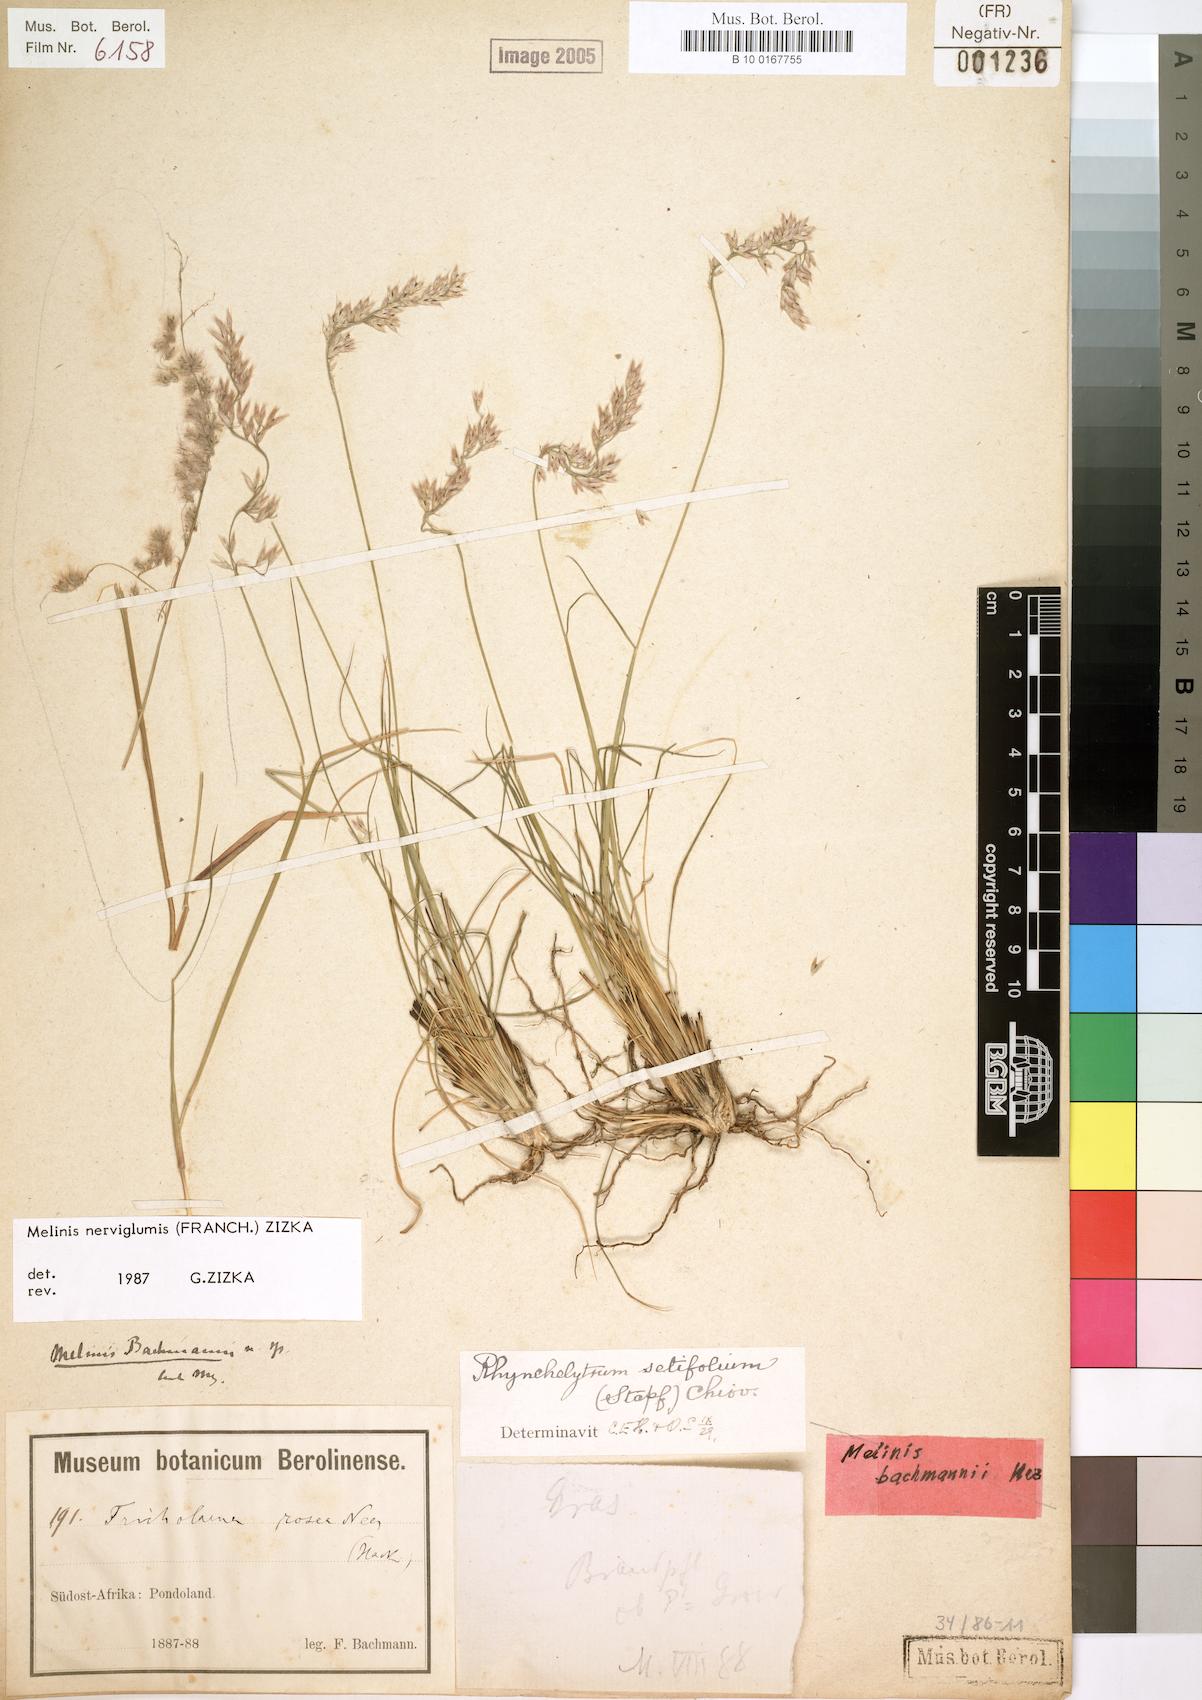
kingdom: Plantae
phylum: Tracheophyta
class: Liliopsida
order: Poales
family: Poaceae
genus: Melinis
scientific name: Melinis nerviglumis
